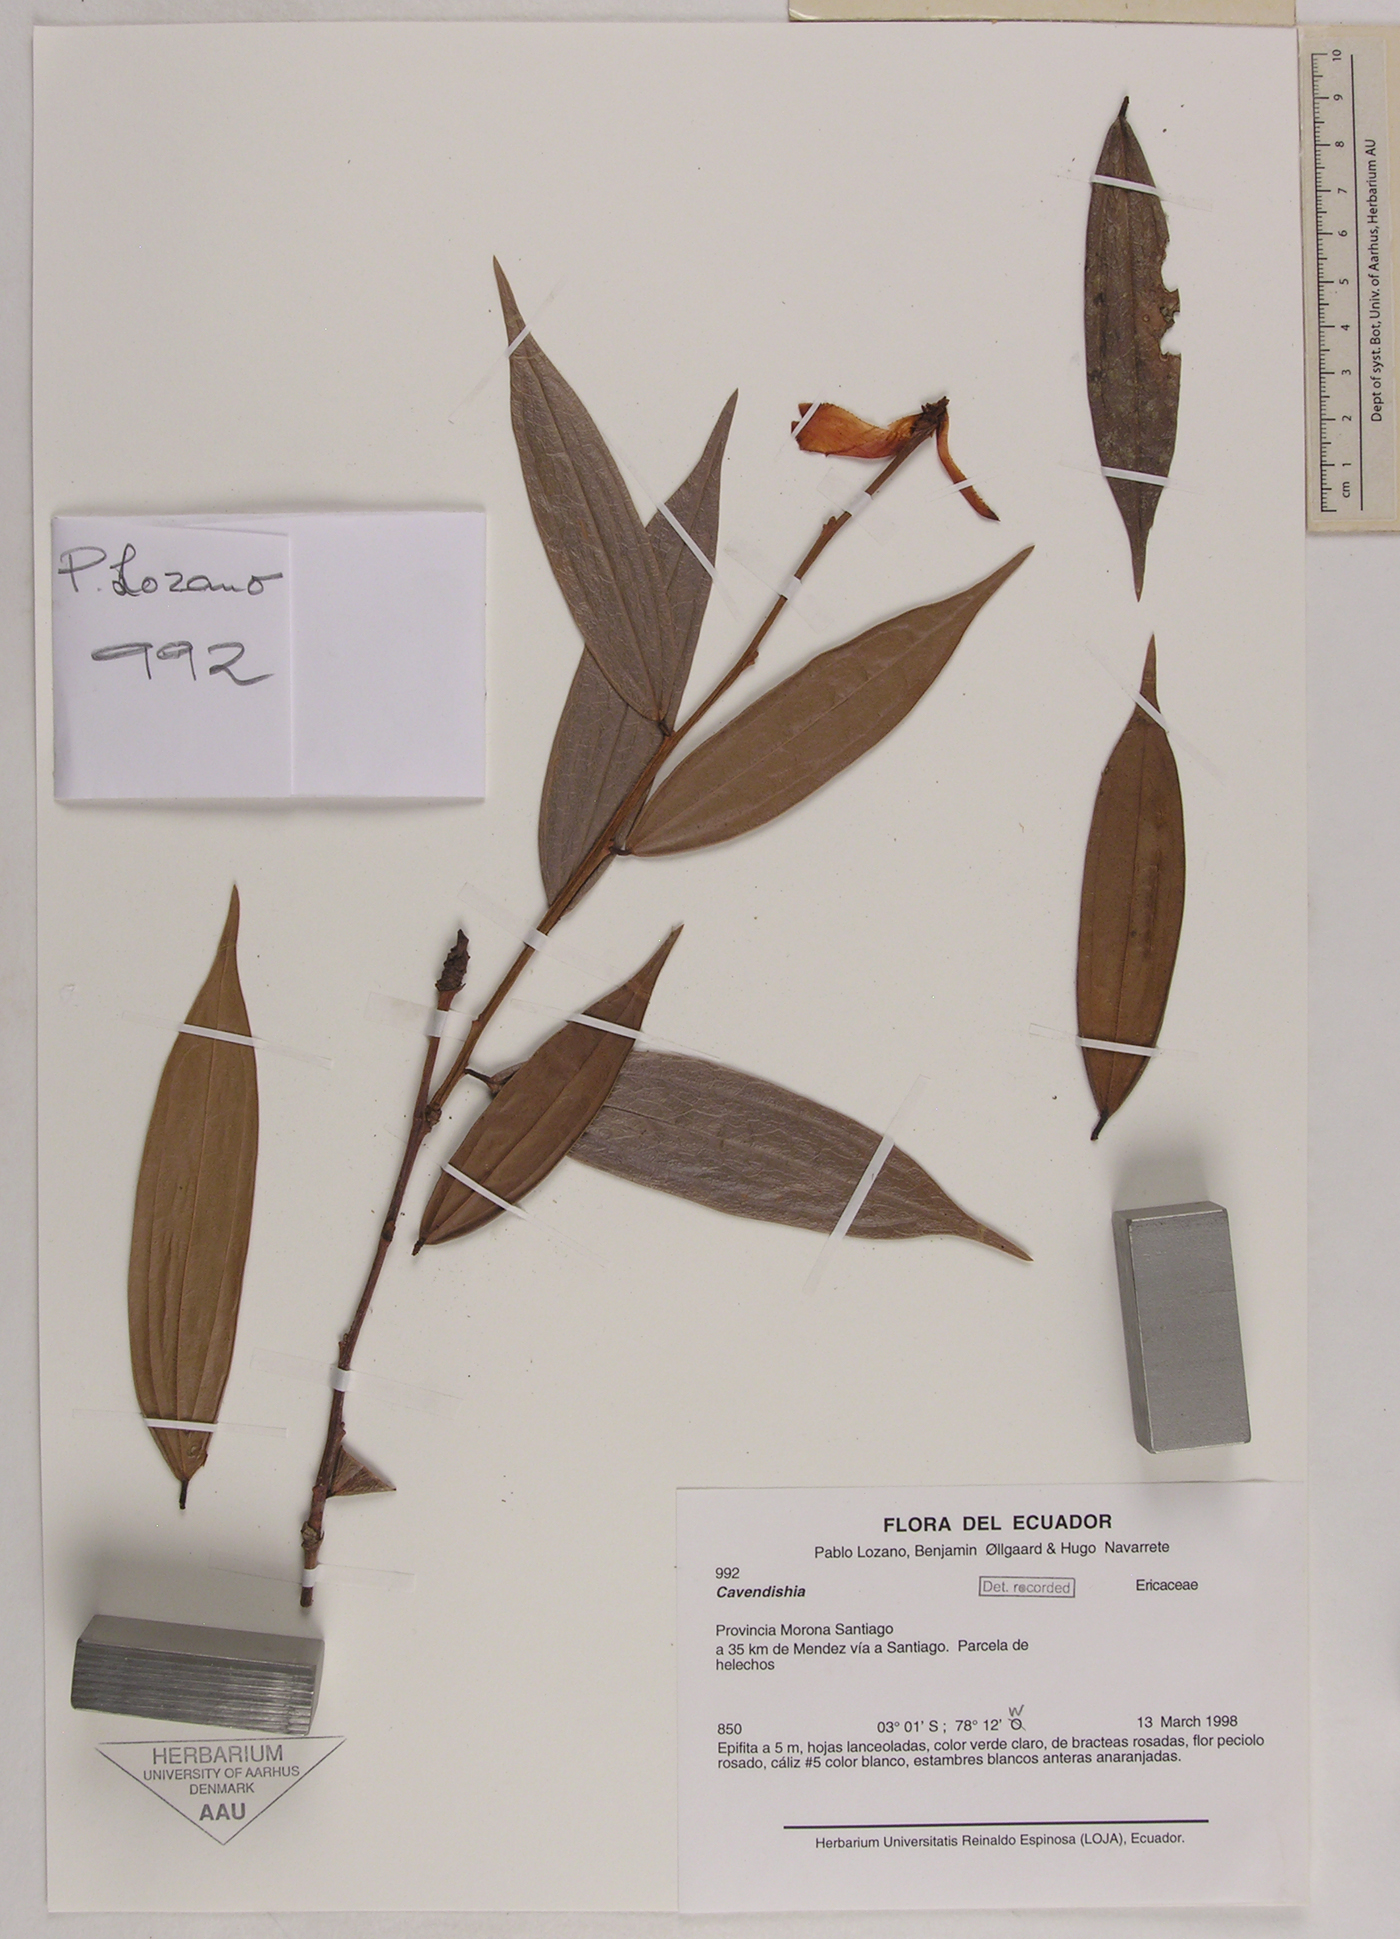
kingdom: Plantae
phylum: Tracheophyta
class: Magnoliopsida
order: Ericales
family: Ericaceae
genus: Cavendishia
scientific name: Cavendishia
